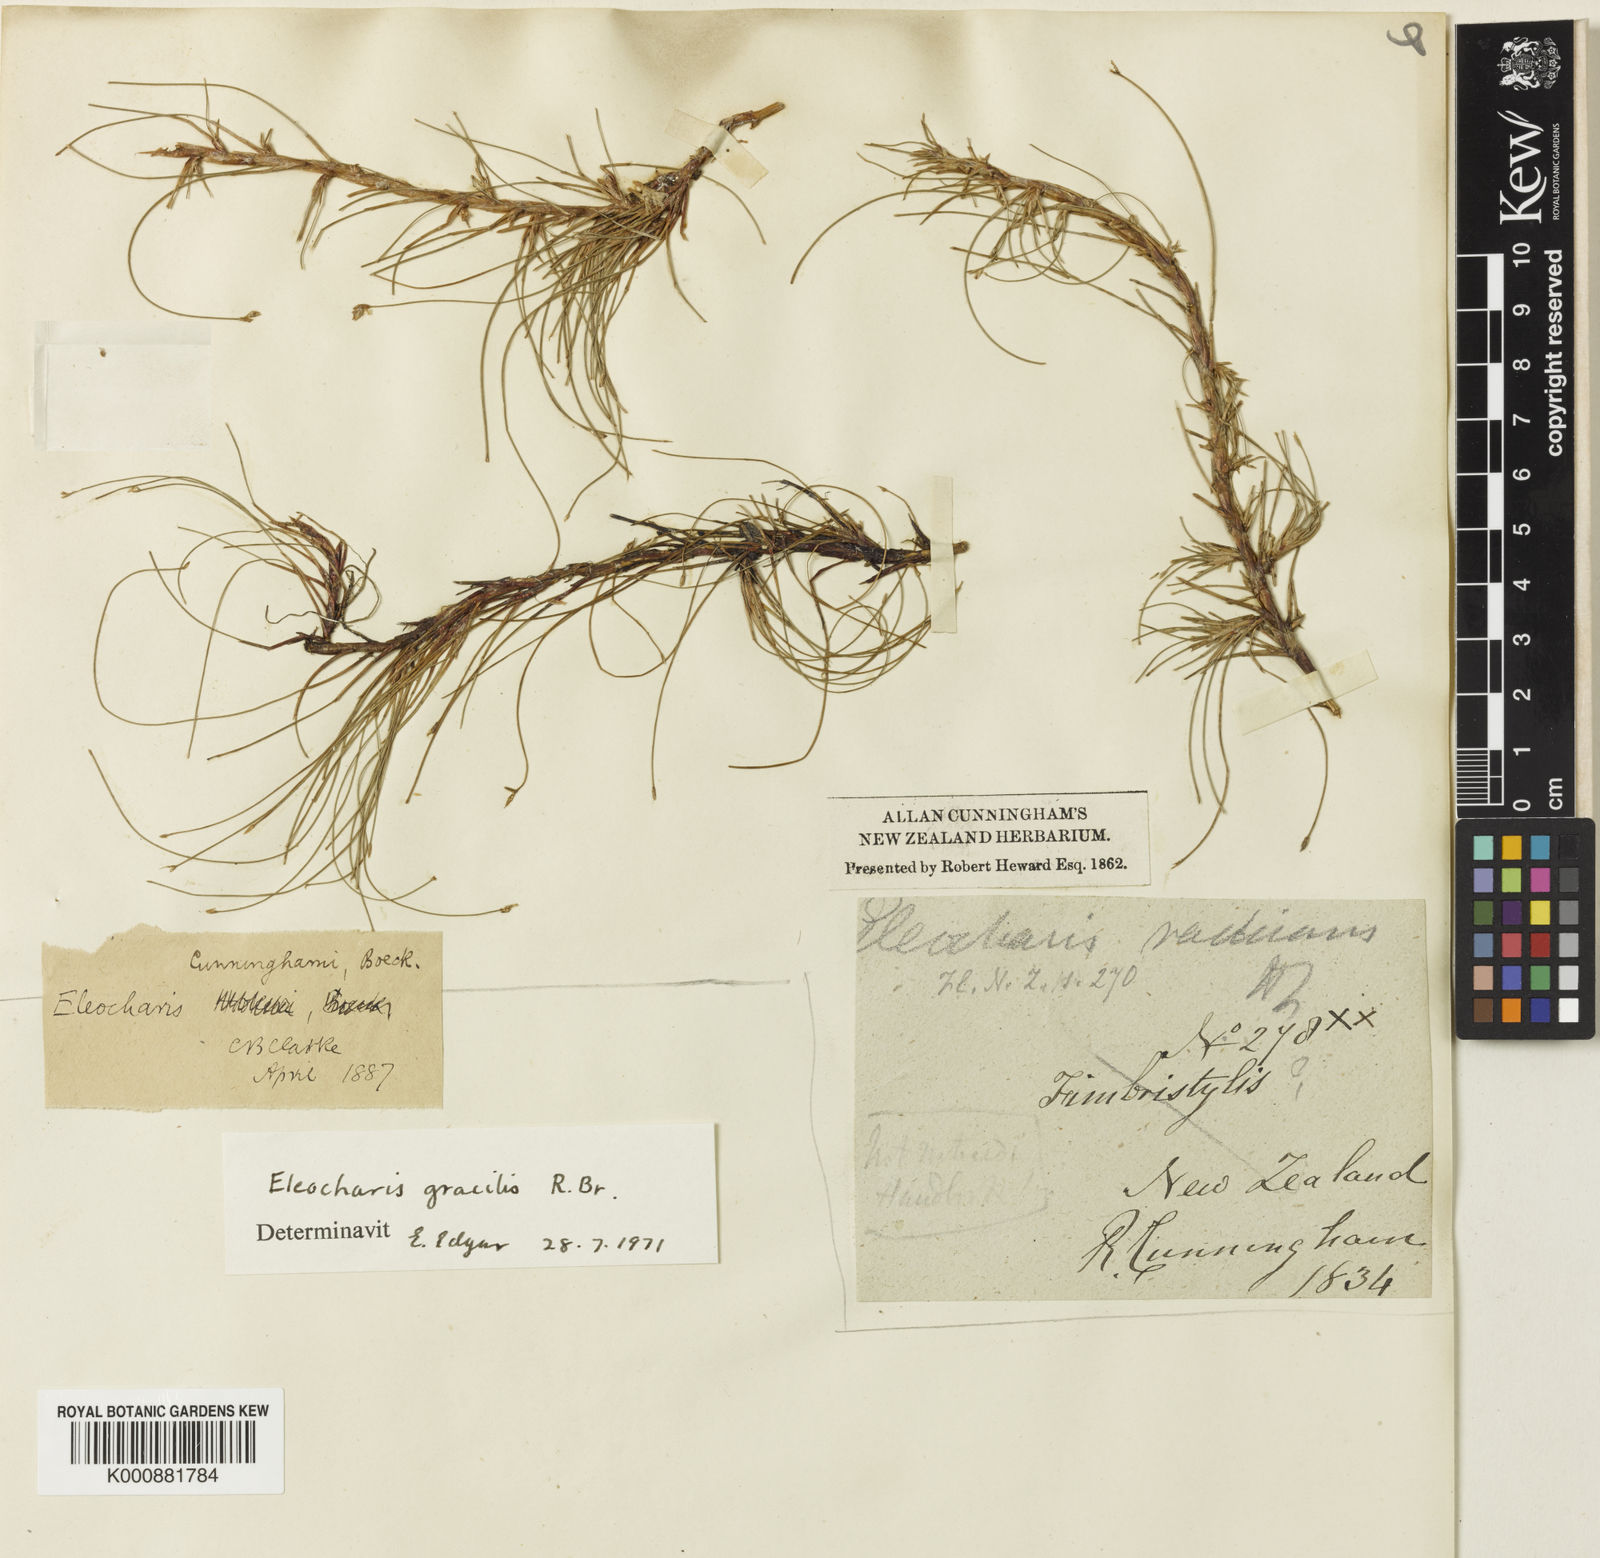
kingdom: Plantae
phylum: Tracheophyta
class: Liliopsida
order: Poales
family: Cyperaceae
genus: Eleocharis
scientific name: Eleocharis gracilis
